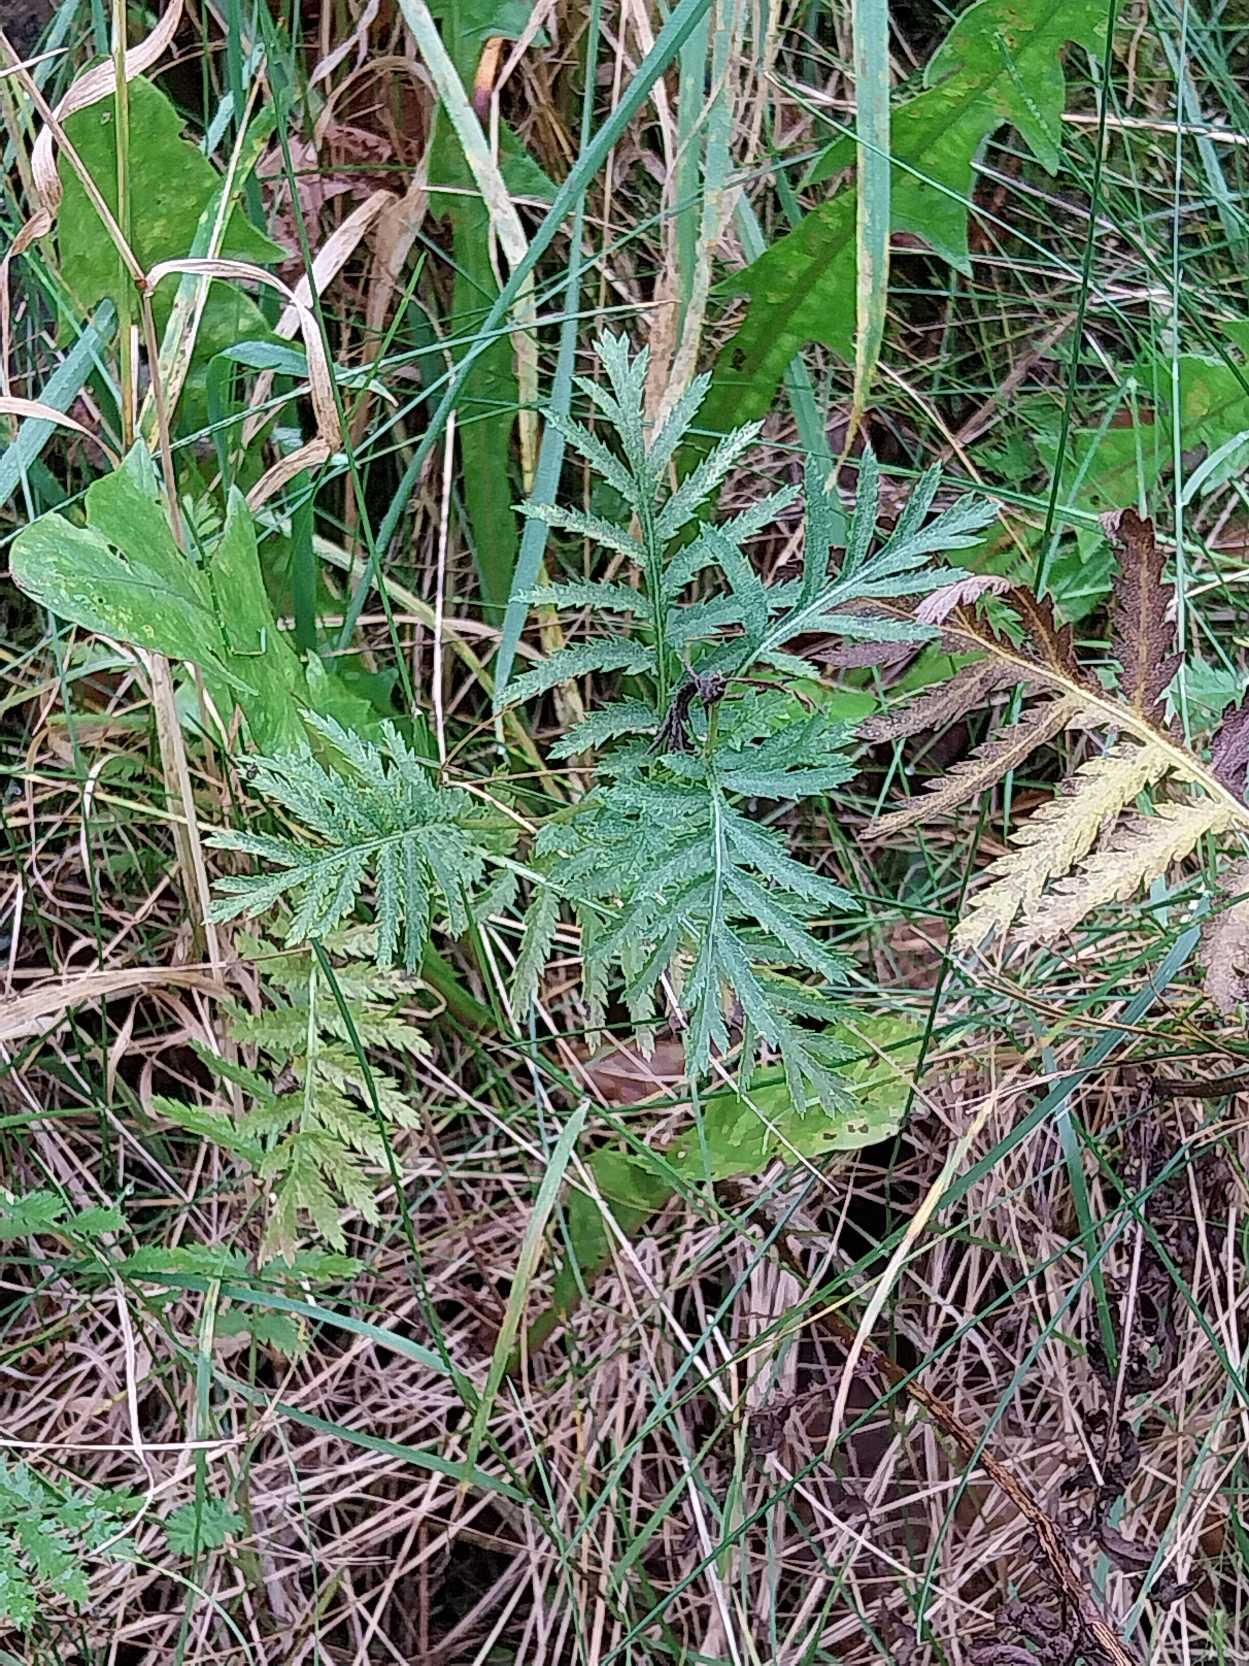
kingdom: Plantae
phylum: Tracheophyta
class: Magnoliopsida
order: Asterales
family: Asteraceae
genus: Tanacetum
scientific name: Tanacetum vulgare
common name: Rejnfan
